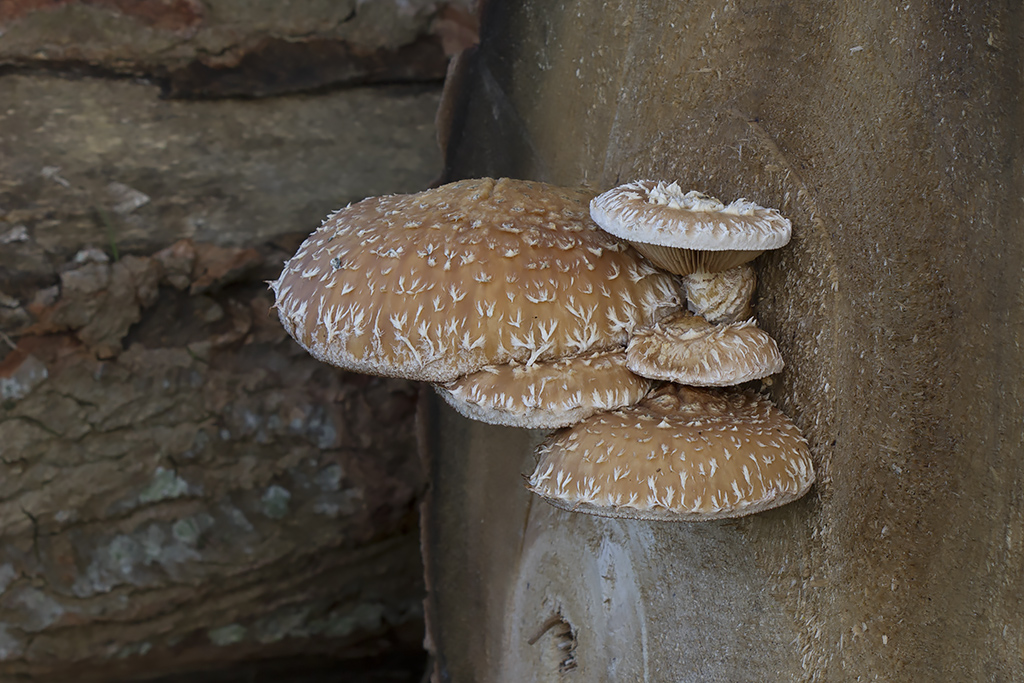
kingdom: Fungi
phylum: Basidiomycota
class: Agaricomycetes
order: Agaricales
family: Strophariaceae
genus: Pholiota
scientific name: Pholiota populnea
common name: poppel-kæmpeskælhat
